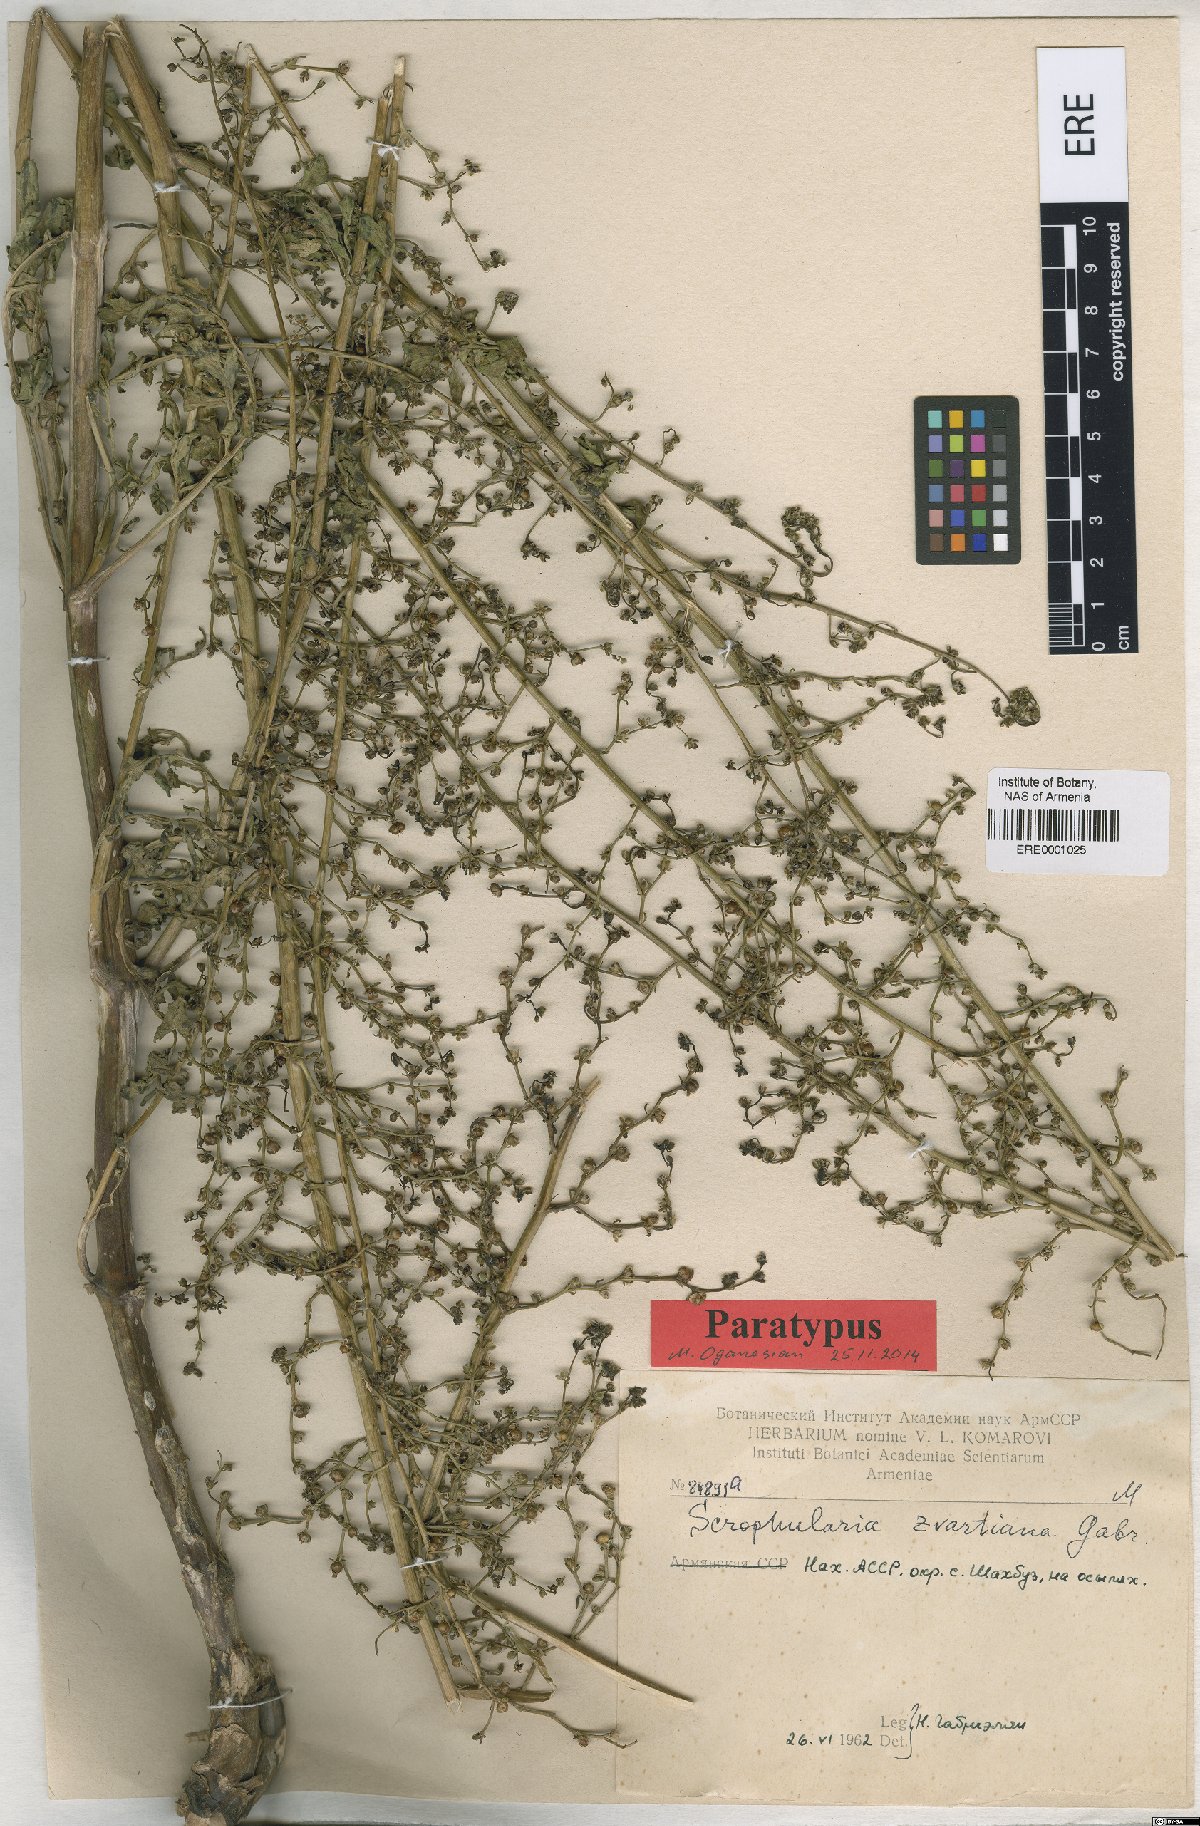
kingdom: Plantae
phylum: Tracheophyta
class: Magnoliopsida
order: Lamiales
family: Scrophulariaceae
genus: Scrophularia
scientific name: Scrophularia zvartiana
